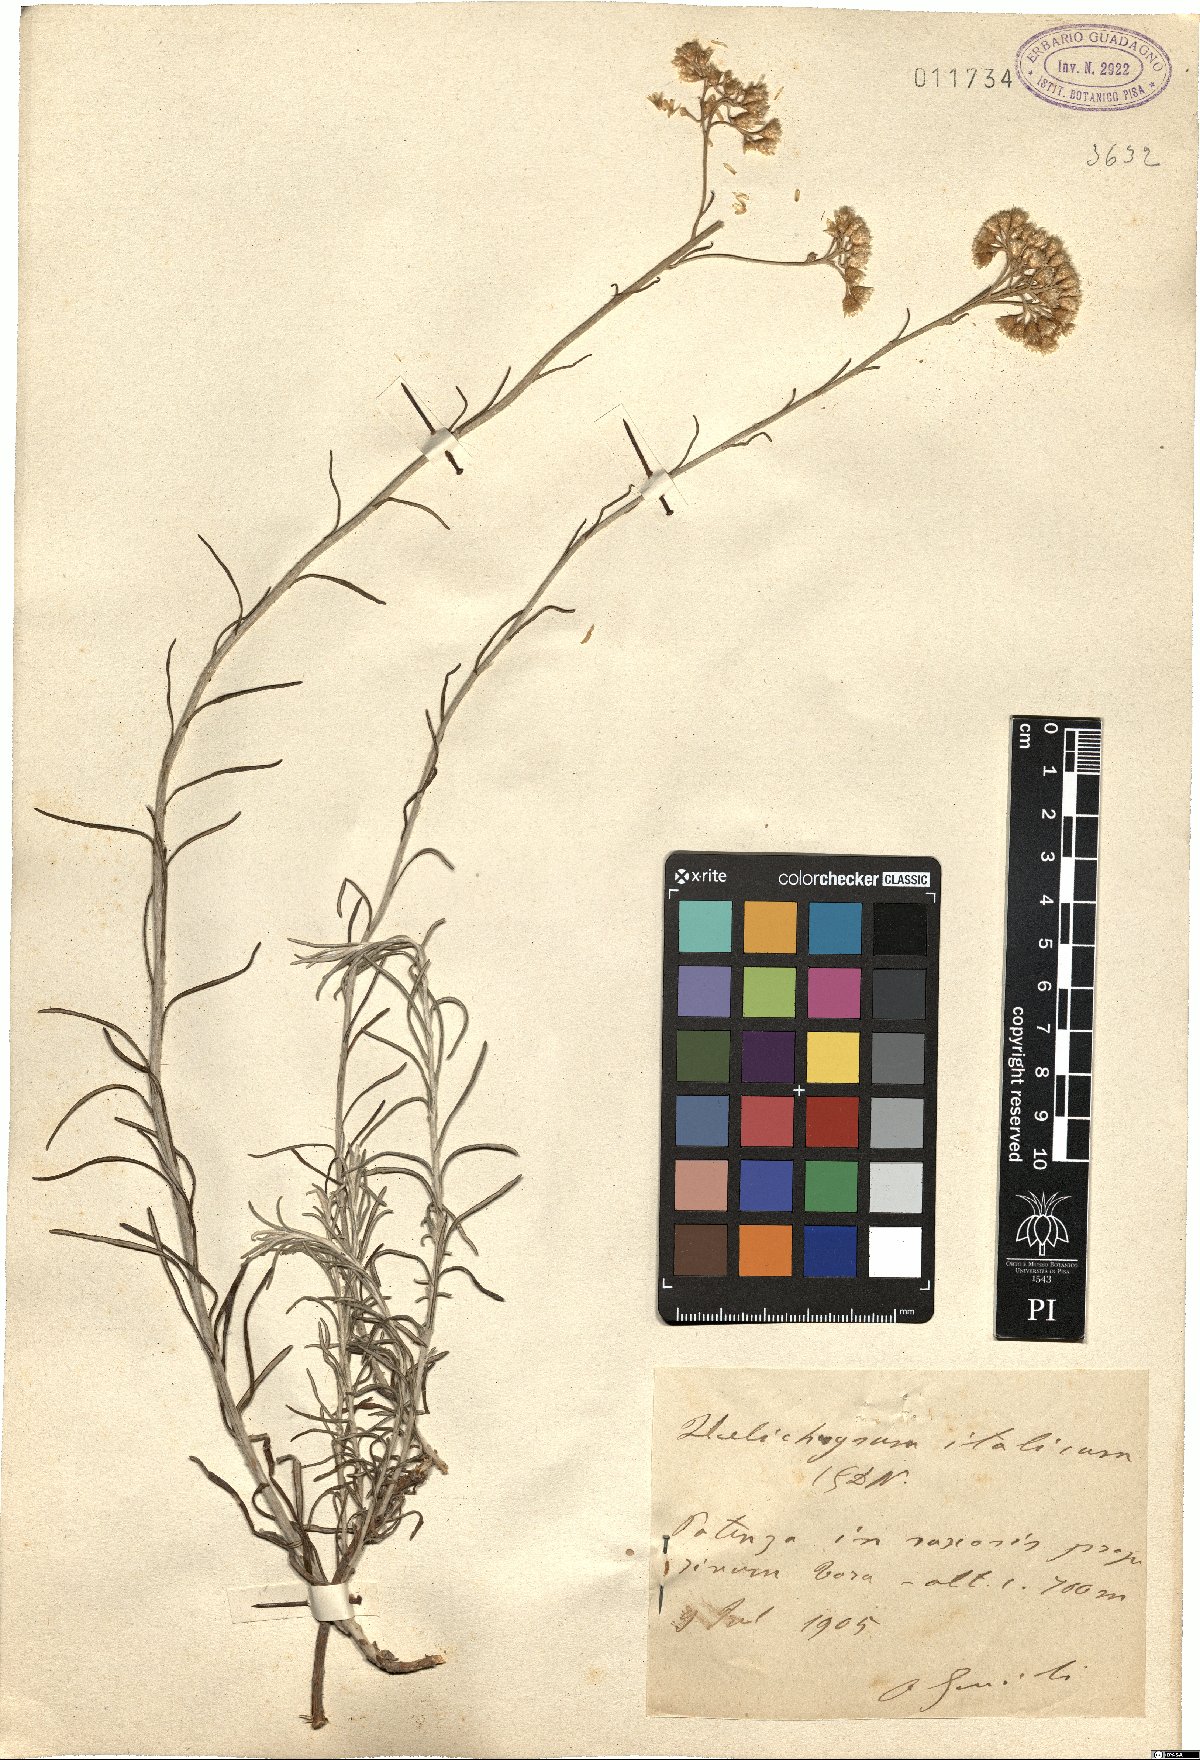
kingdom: Plantae
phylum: Tracheophyta
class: Magnoliopsida
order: Asterales
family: Asteraceae
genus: Helichrysum
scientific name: Helichrysum italicum
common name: Curryplant
